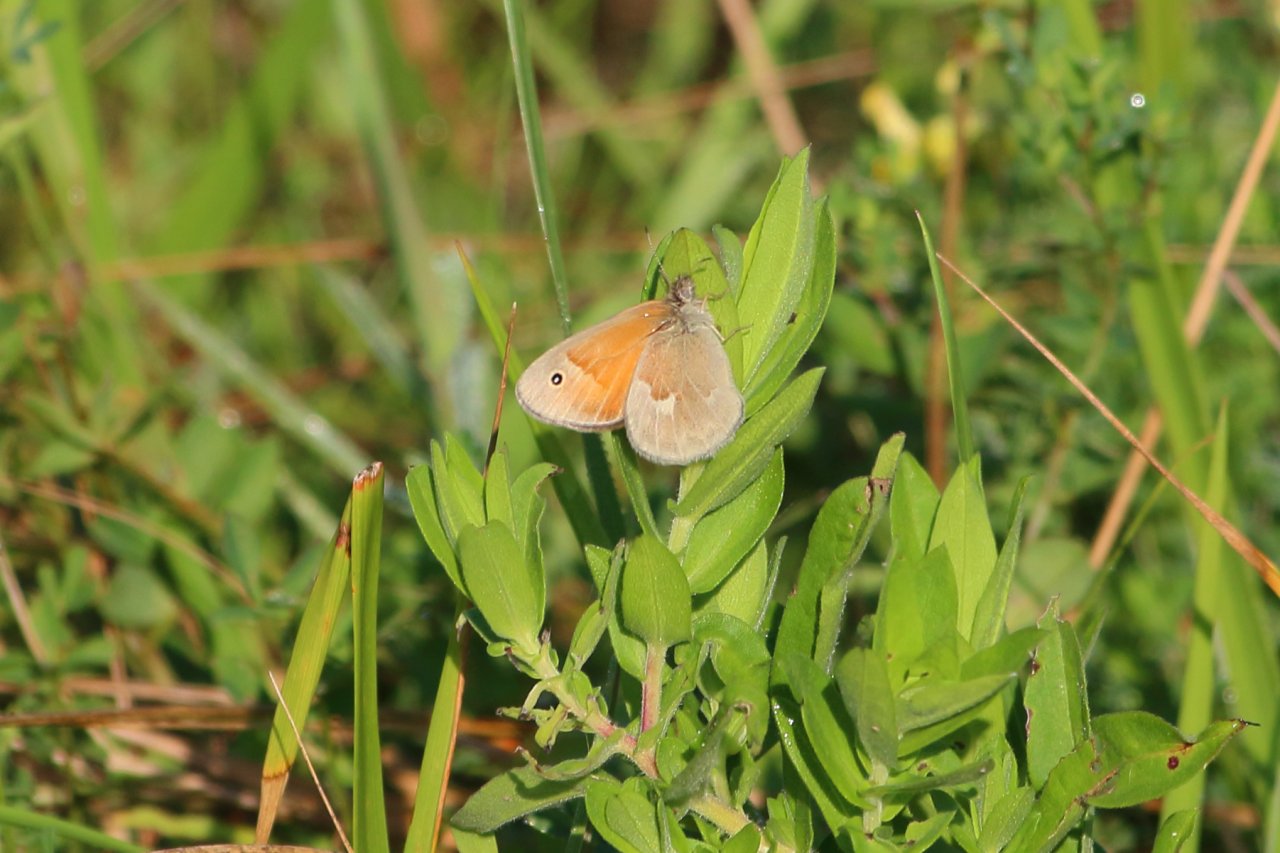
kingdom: Animalia
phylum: Arthropoda
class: Insecta
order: Lepidoptera
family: Nymphalidae
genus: Coenonympha
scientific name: Coenonympha tullia
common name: Large Heath
